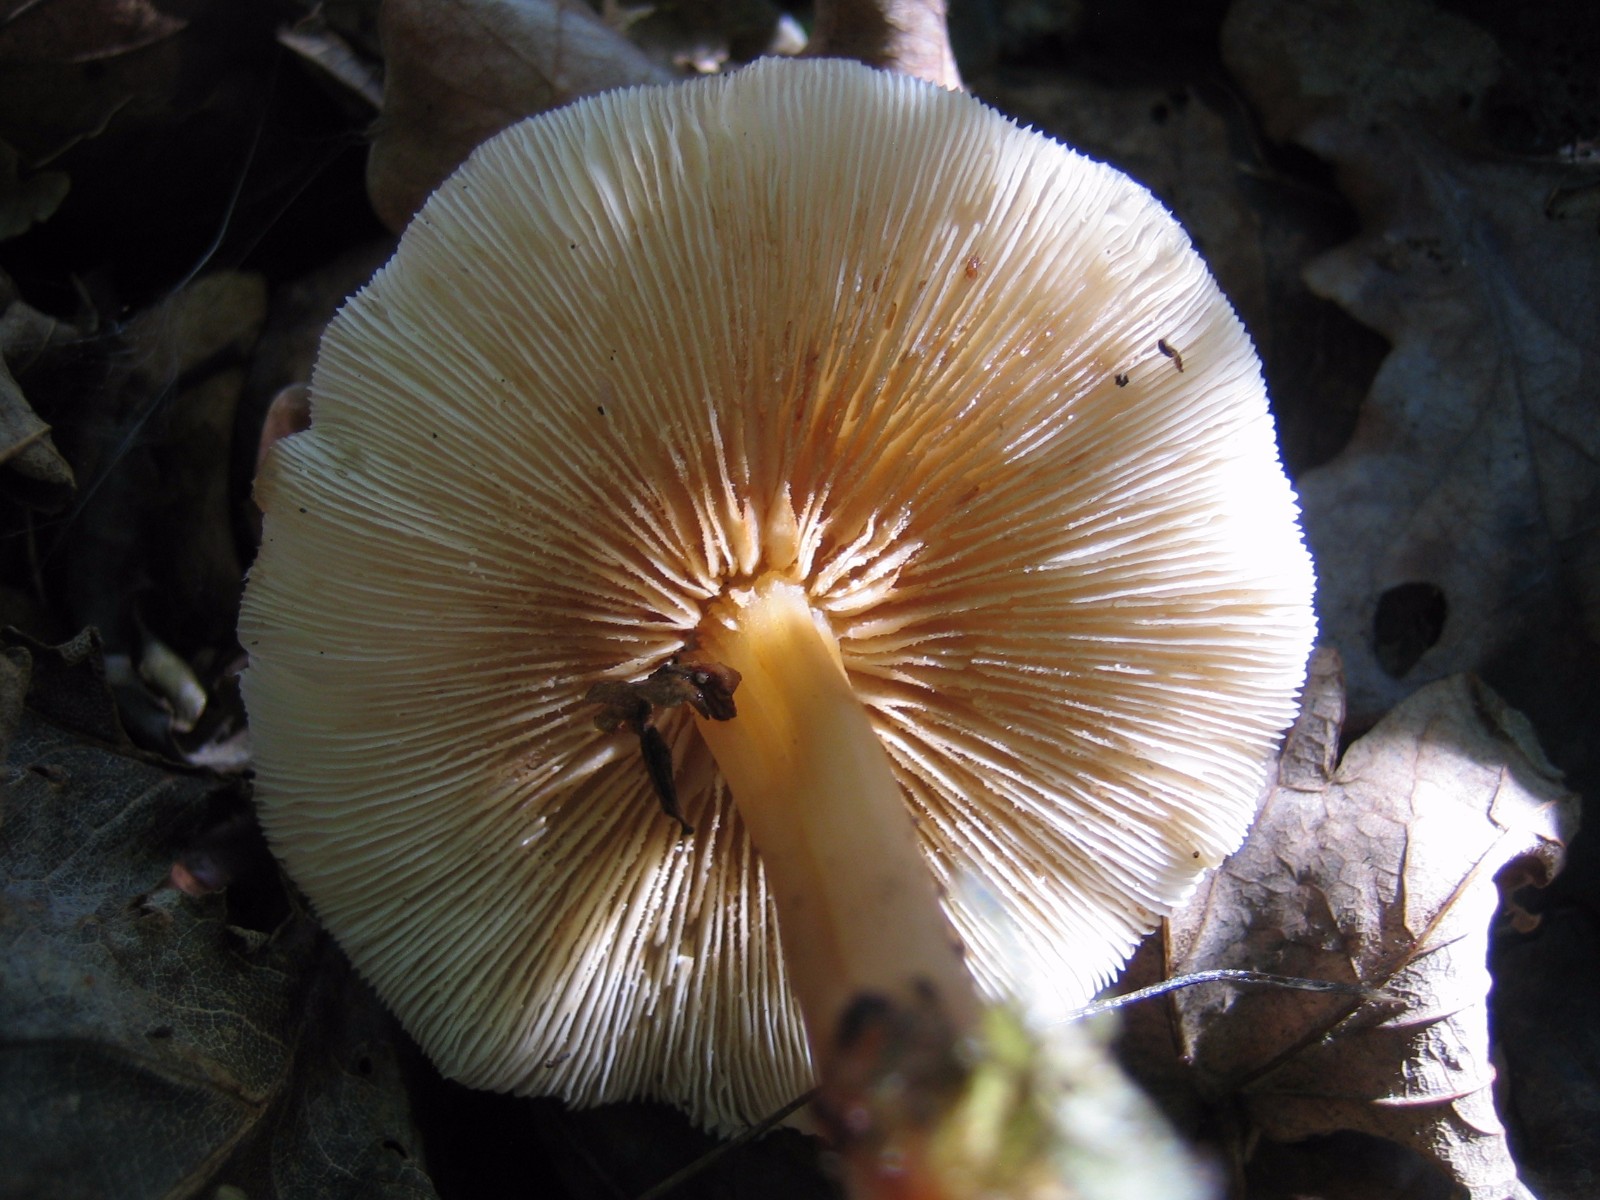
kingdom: Fungi
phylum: Basidiomycota
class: Agaricomycetes
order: Agaricales
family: Omphalotaceae
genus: Gymnopus
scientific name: Gymnopus
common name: fladhat
